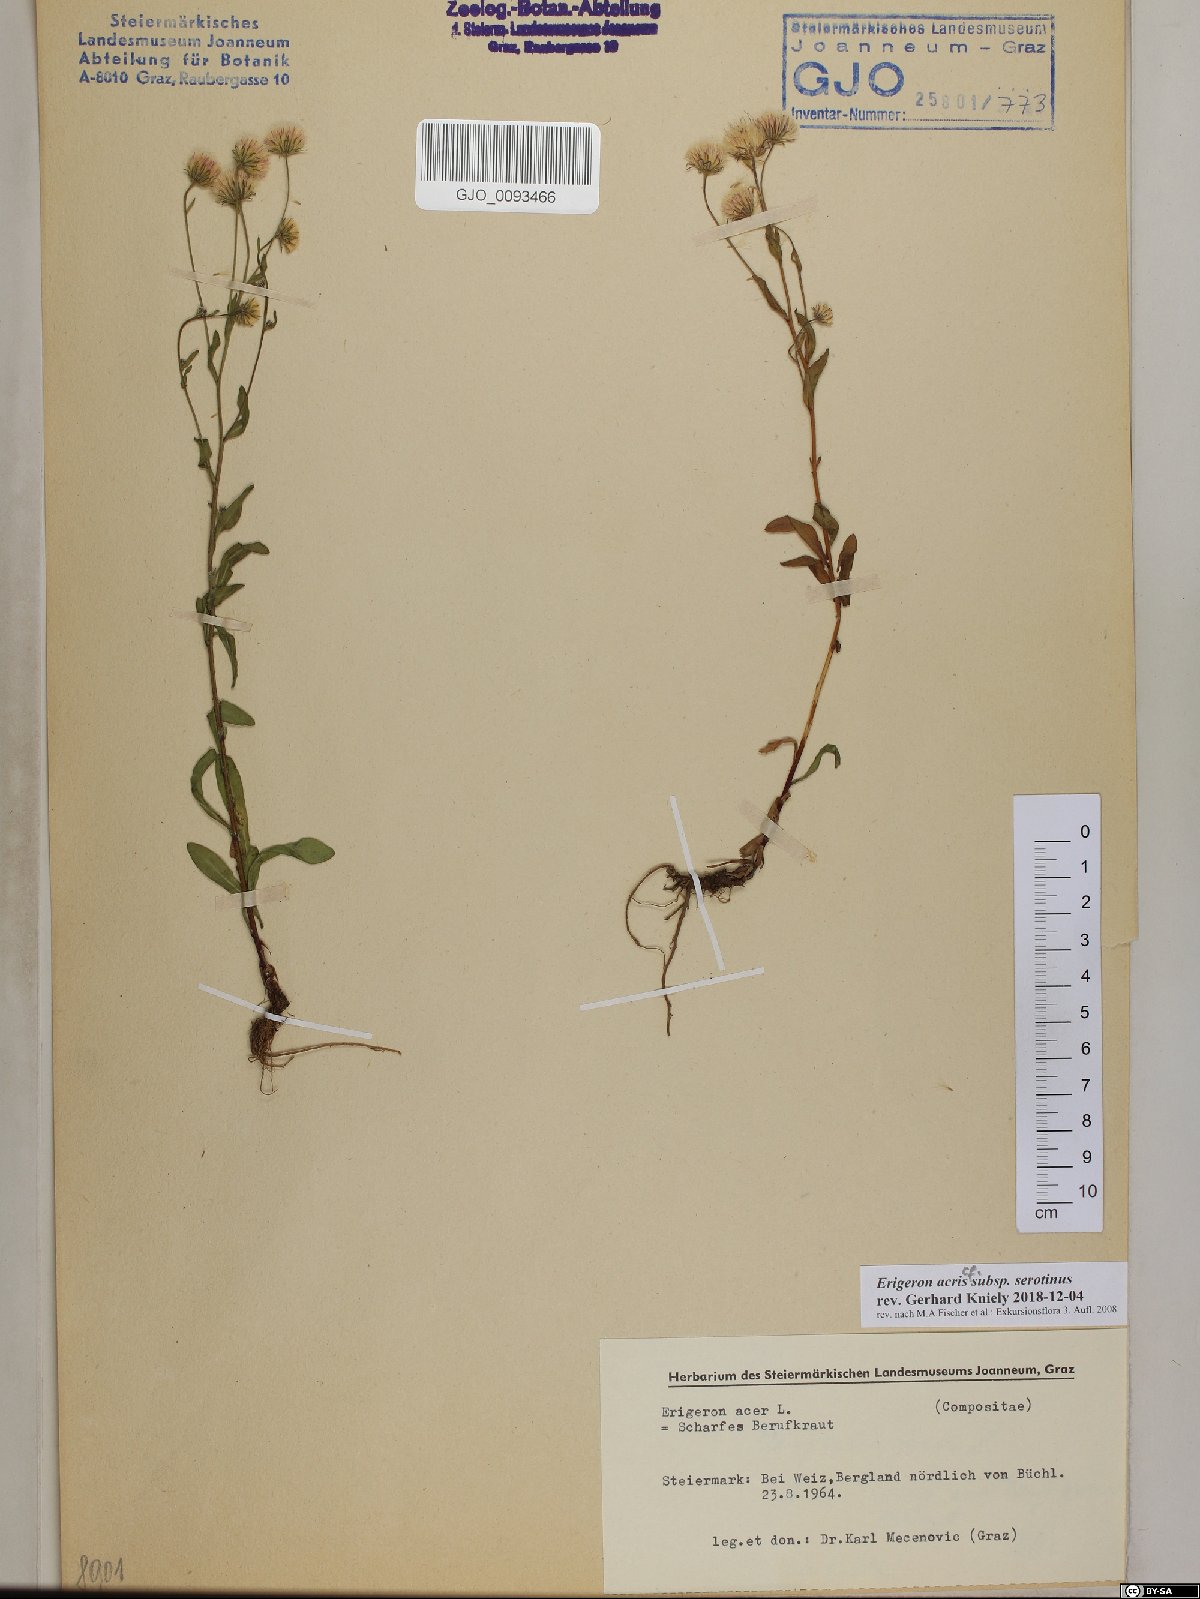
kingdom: Plantae
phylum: Tracheophyta
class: Magnoliopsida
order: Asterales
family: Asteraceae
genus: Erigeron
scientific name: Erigeron muralis
